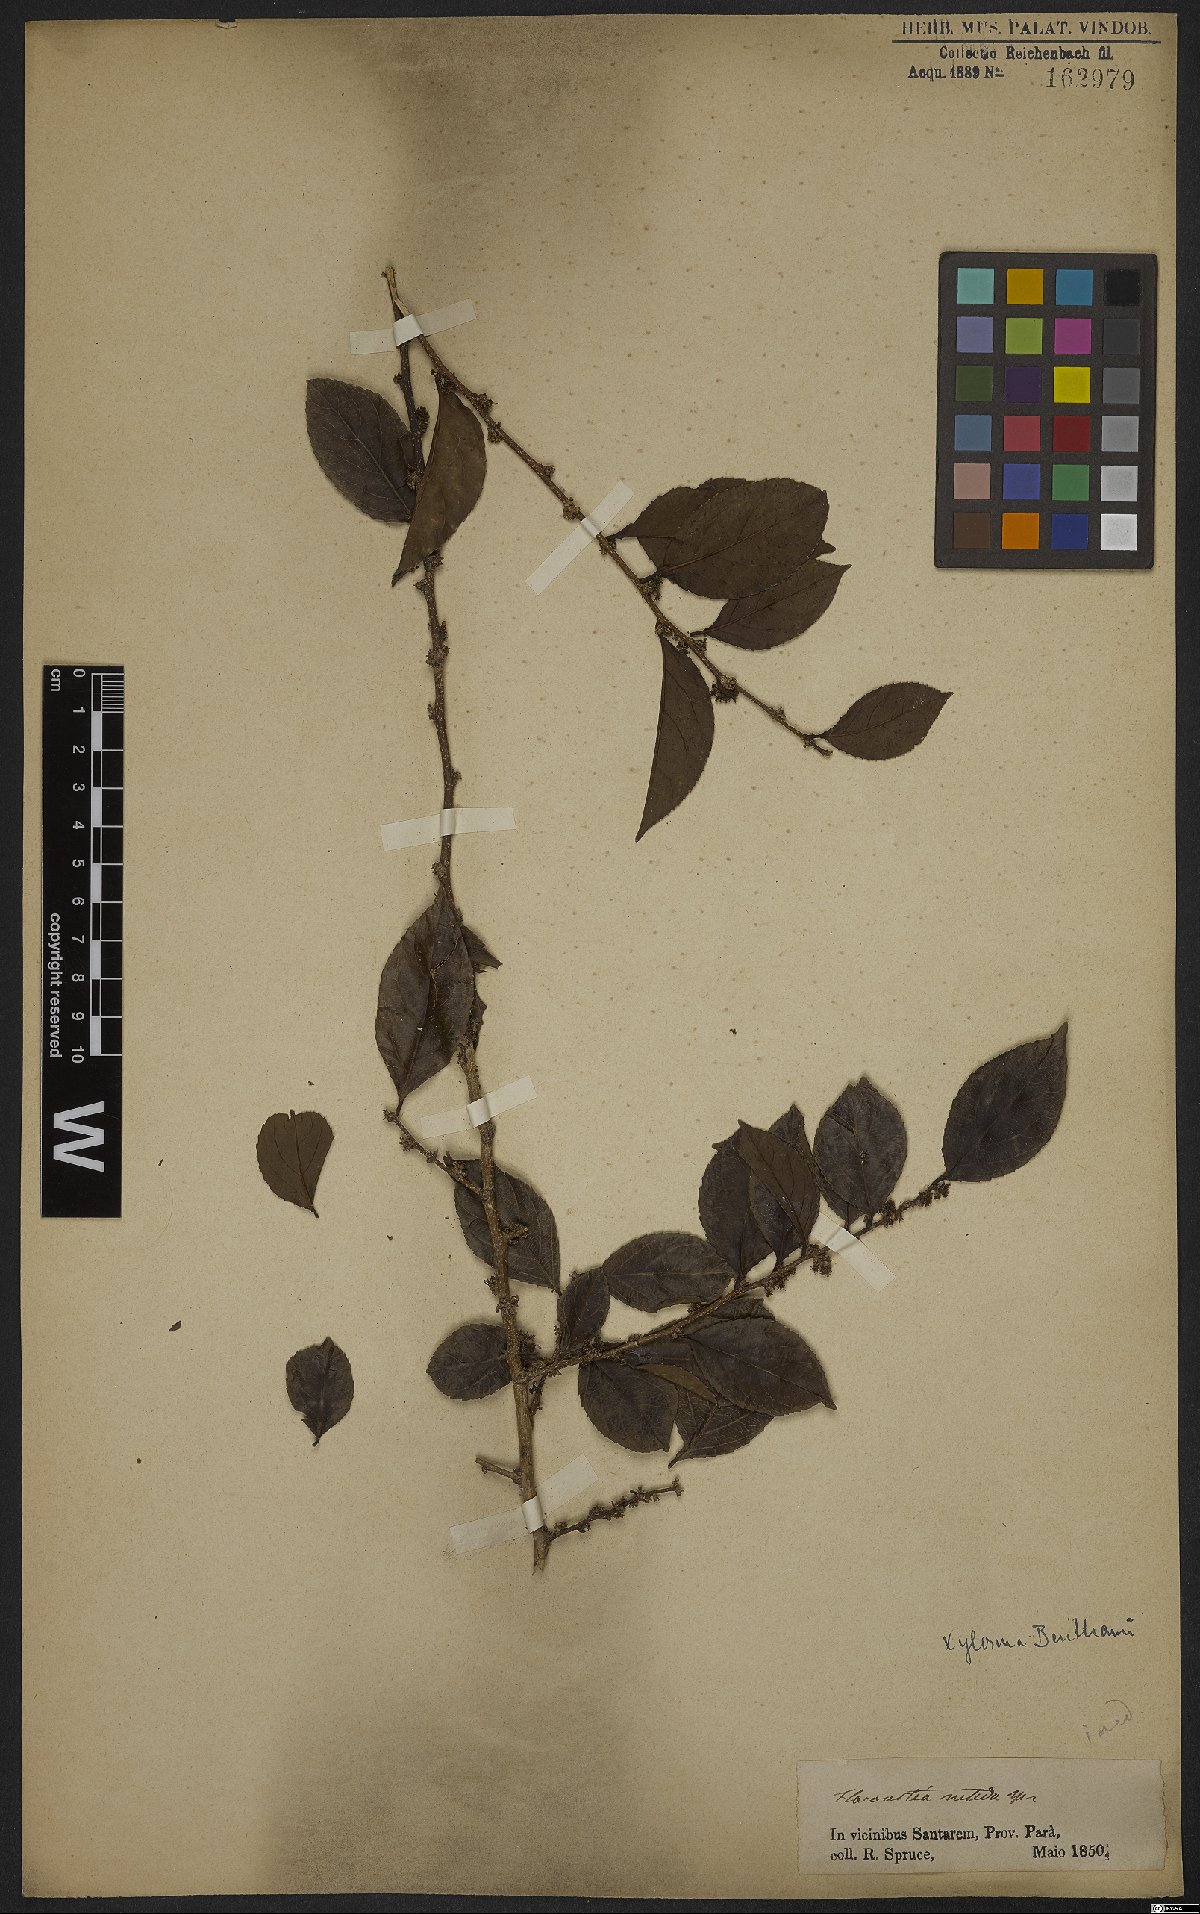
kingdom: Plantae
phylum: Tracheophyta
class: Magnoliopsida
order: Malpighiales
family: Salicaceae
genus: Xylosma
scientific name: Xylosma benthamii
